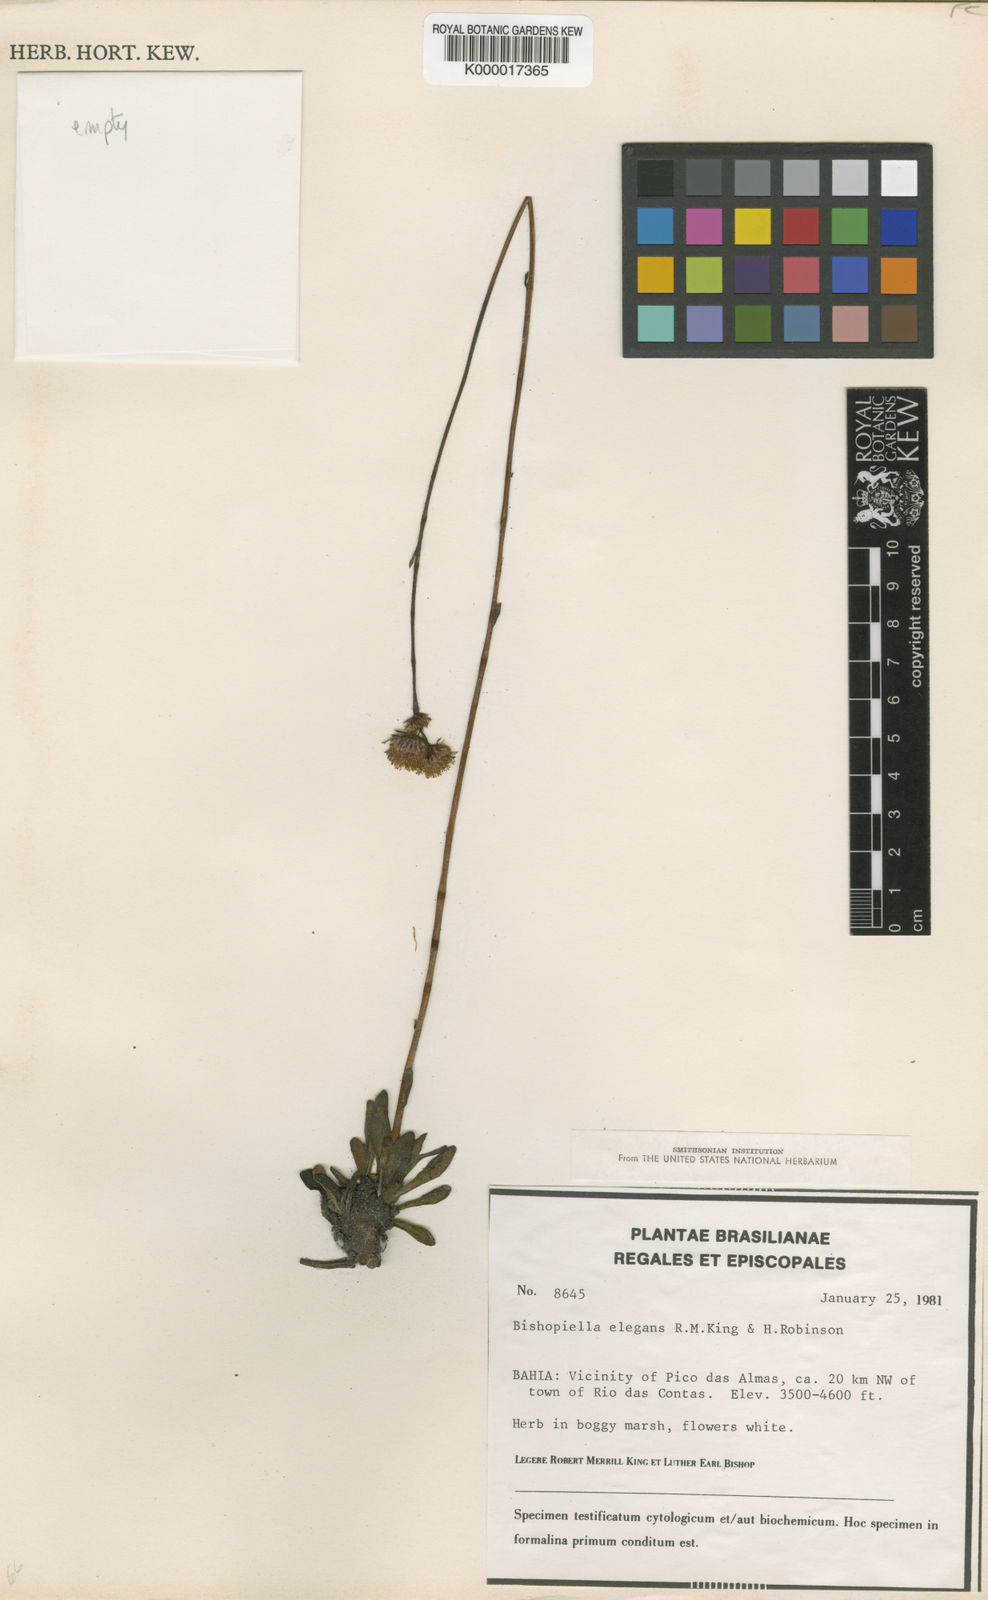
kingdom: Plantae
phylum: Tracheophyta
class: Magnoliopsida
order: Asterales
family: Asteraceae
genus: Bishopiella
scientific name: Bishopiella elegans
